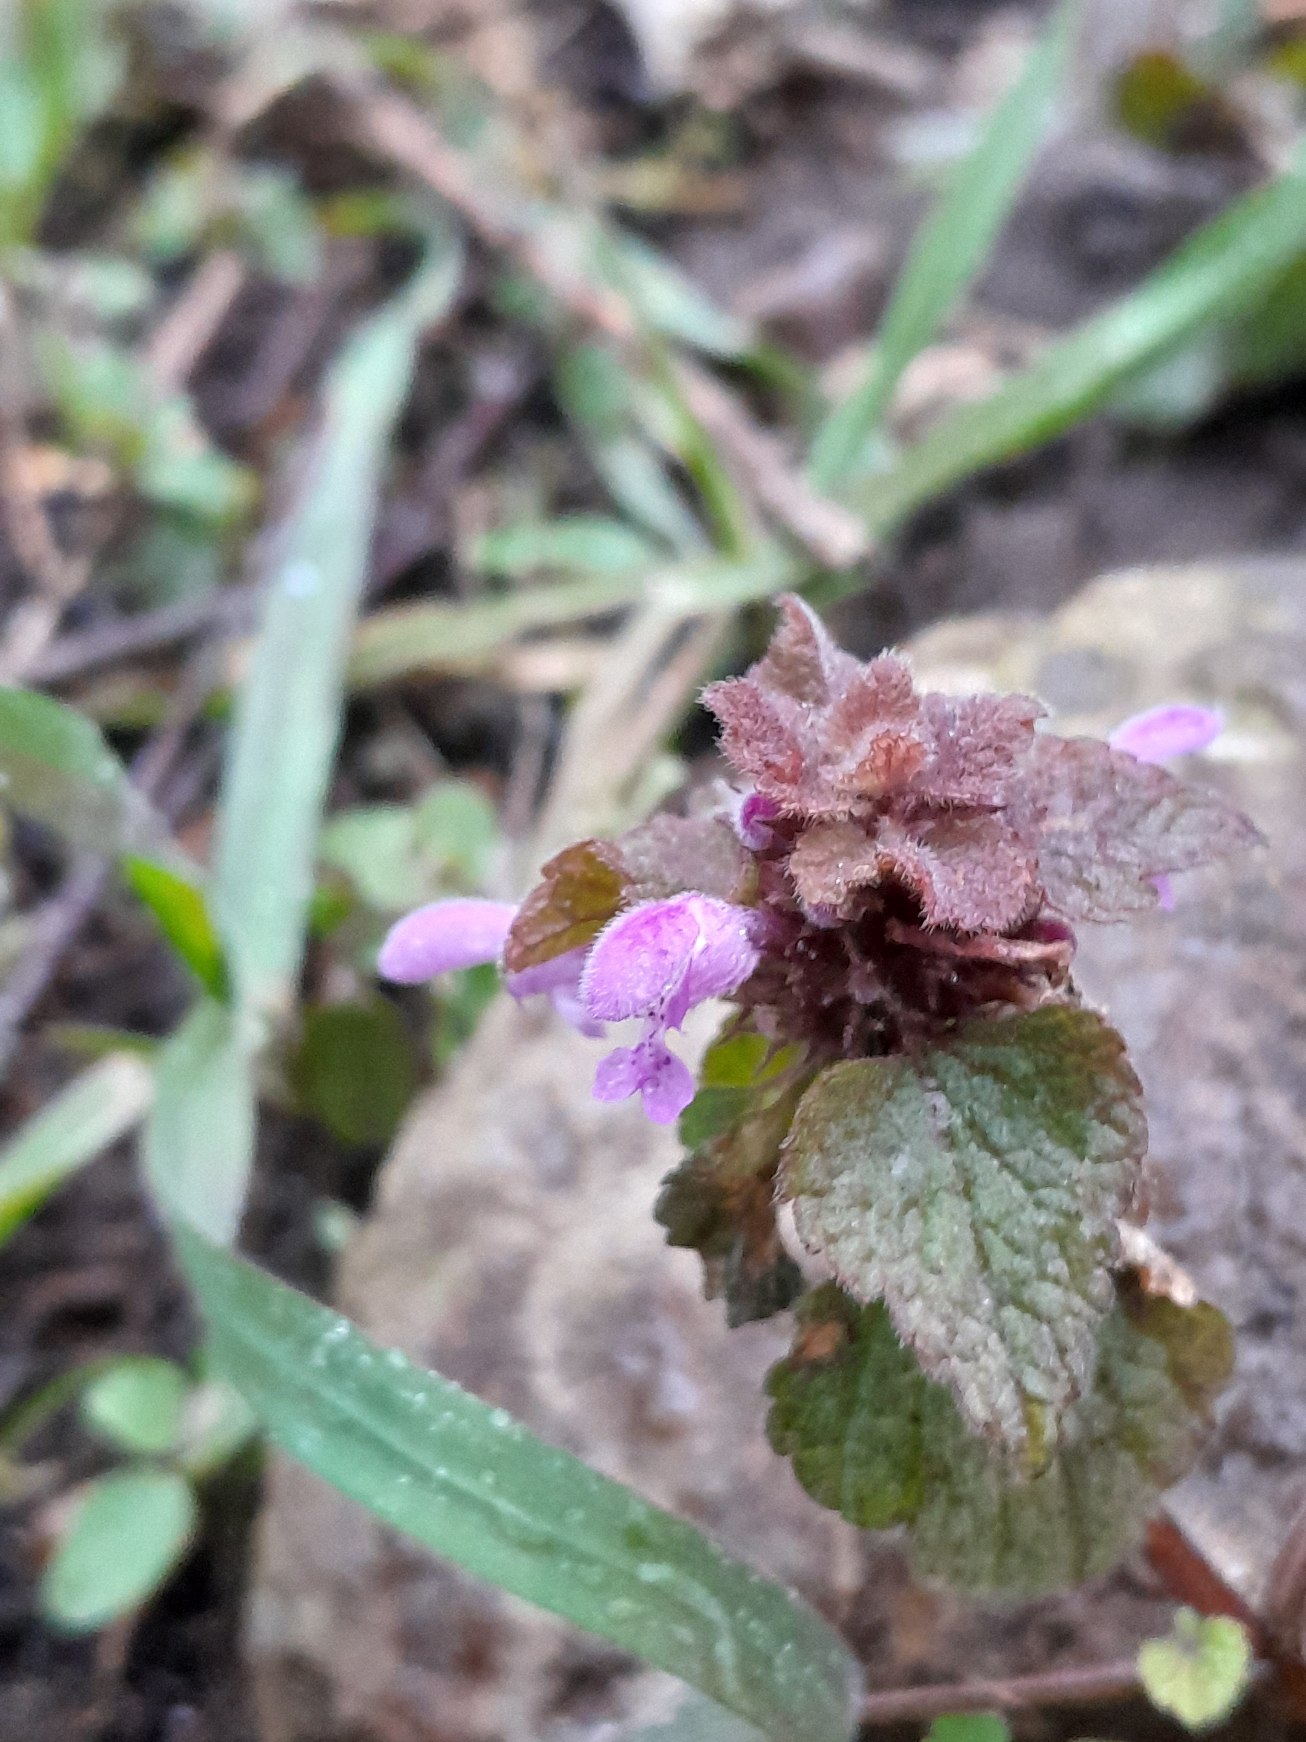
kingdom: Plantae
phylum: Tracheophyta
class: Magnoliopsida
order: Lamiales
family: Lamiaceae
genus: Lamium
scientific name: Lamium purpureum
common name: Rød tvetand
